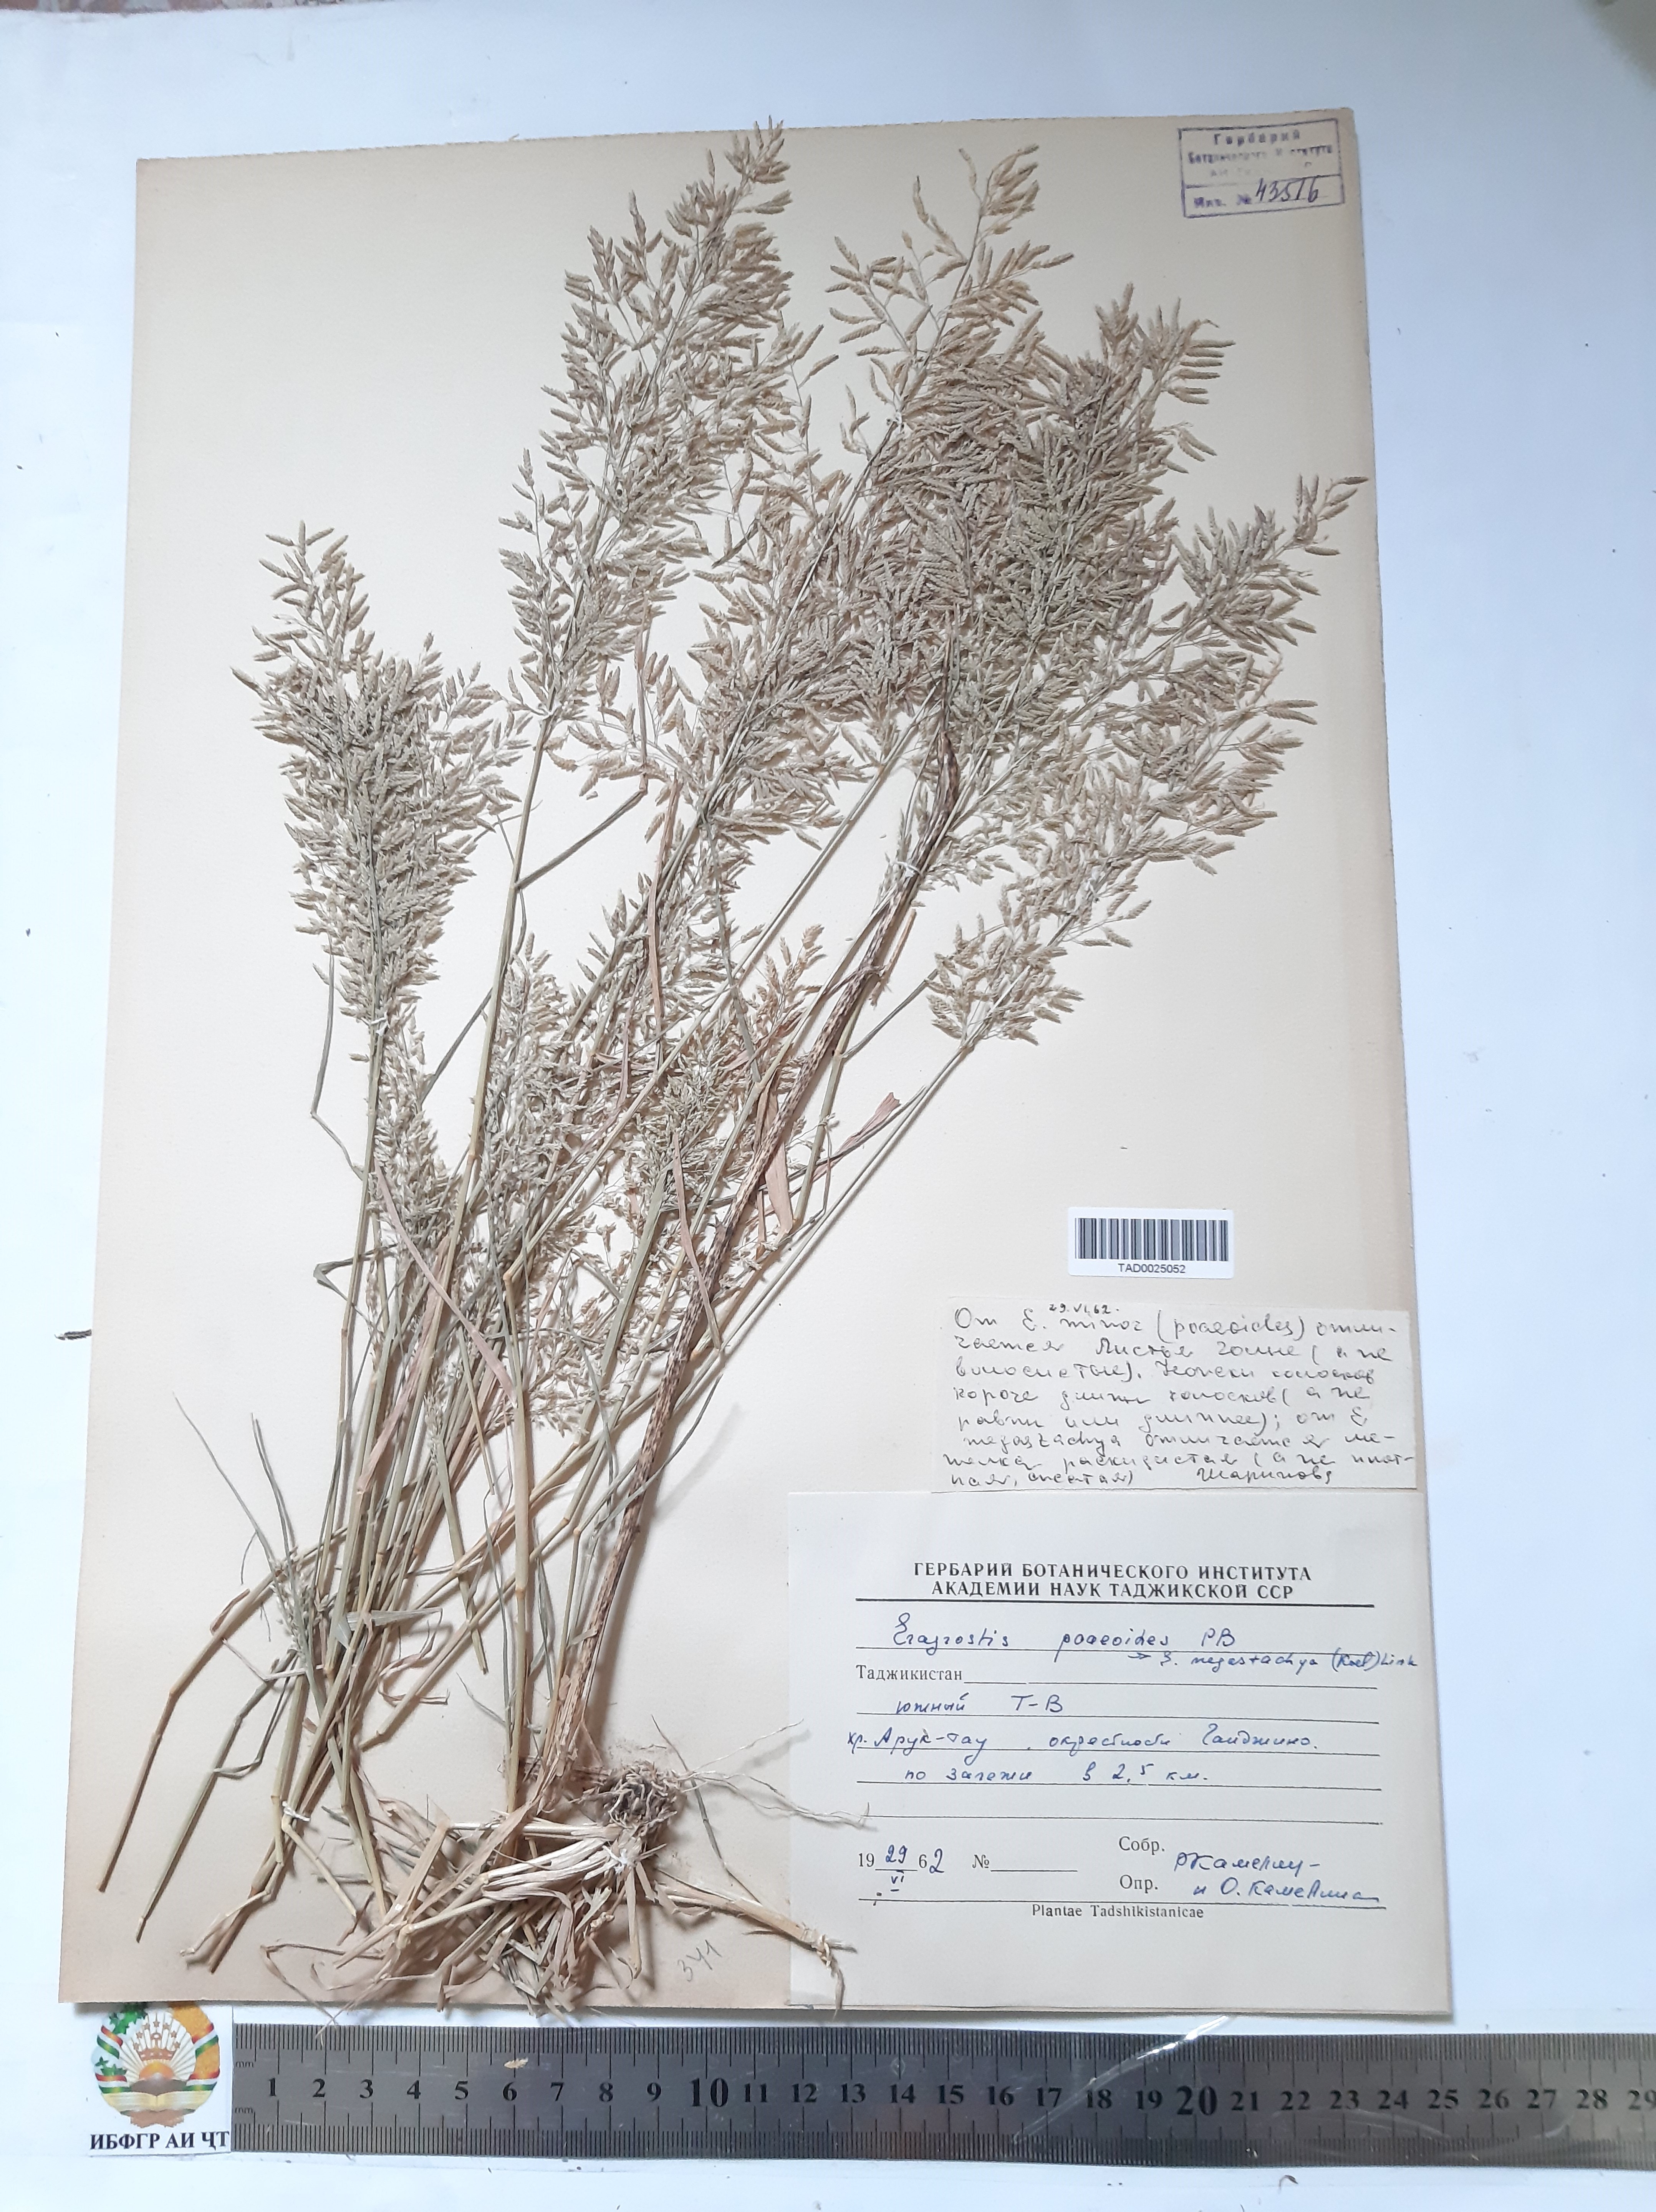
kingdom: Plantae
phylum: Tracheophyta
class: Liliopsida
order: Poales
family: Poaceae
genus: Eragrostis
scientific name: Eragrostis minor
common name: Small love-grass
